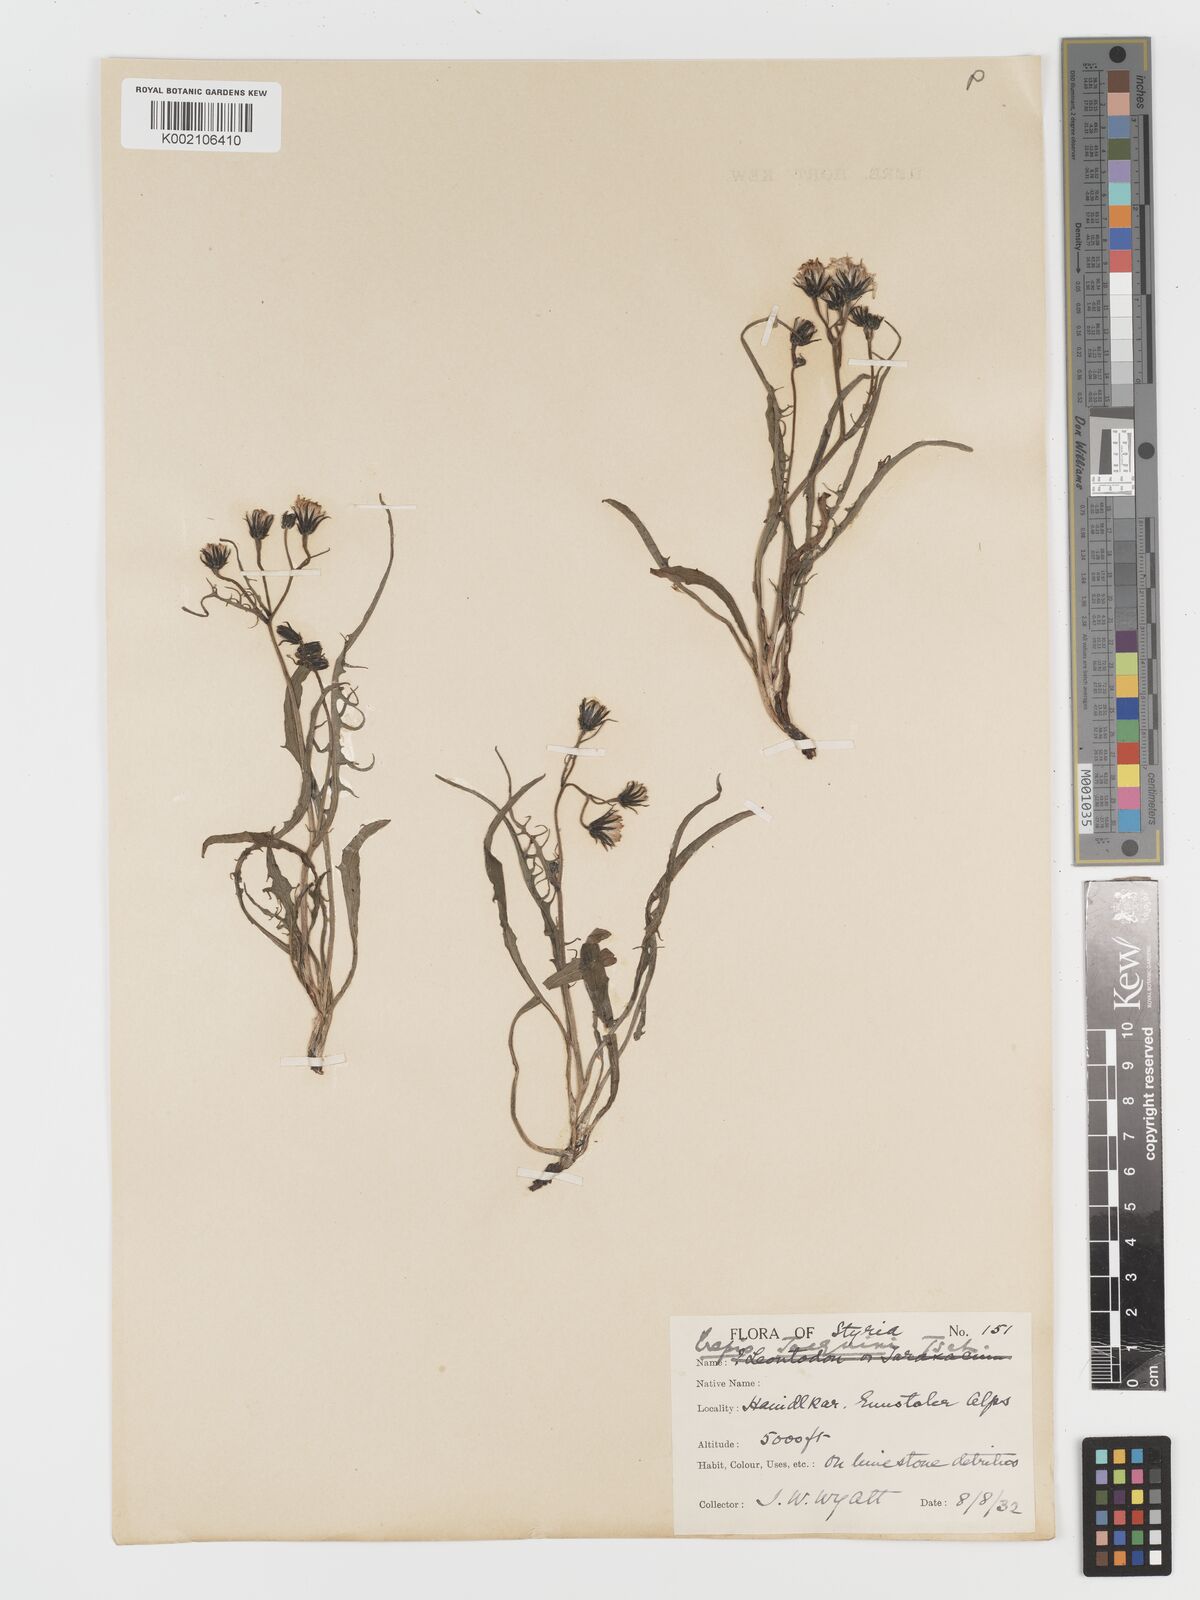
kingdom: Plantae
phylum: Tracheophyta
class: Magnoliopsida
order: Asterales
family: Asteraceae
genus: Crepis
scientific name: Crepis jacquinii
